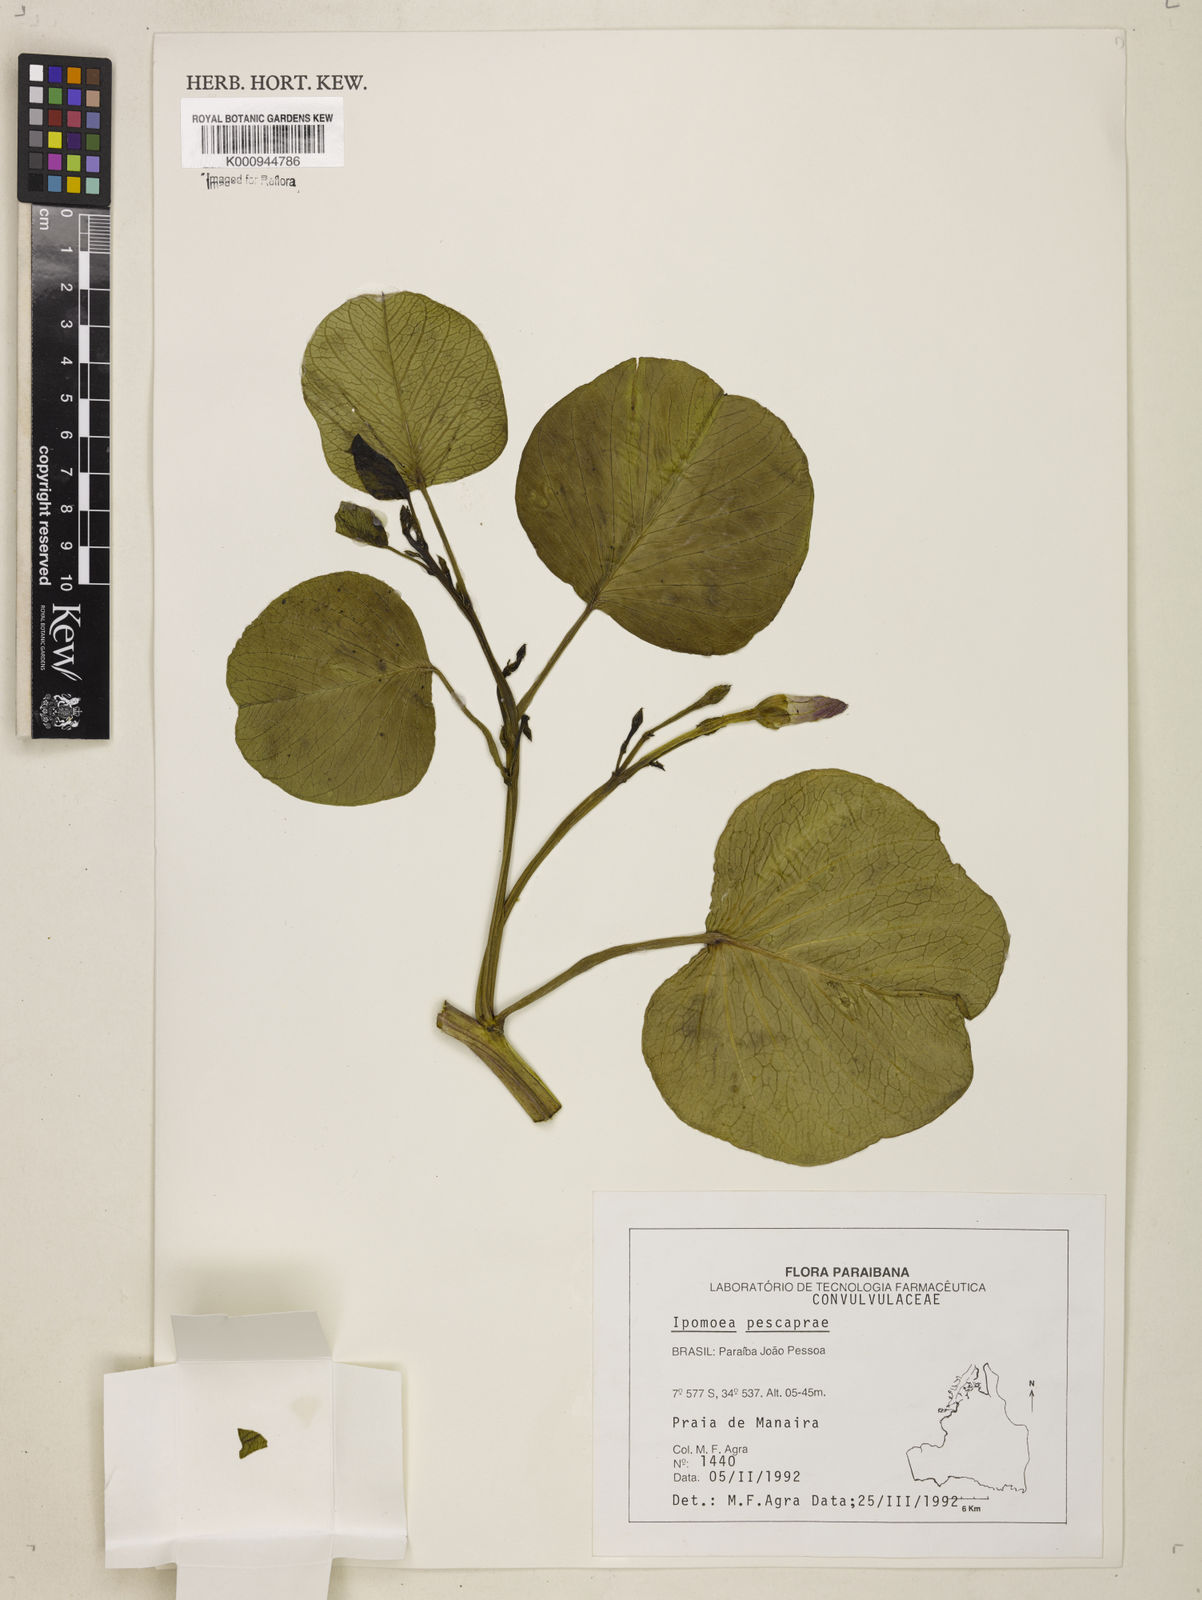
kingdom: Plantae
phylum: Tracheophyta
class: Magnoliopsida
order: Solanales
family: Convolvulaceae
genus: Ipomoea
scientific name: Ipomoea pes-caprae
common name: Beach morning glory
